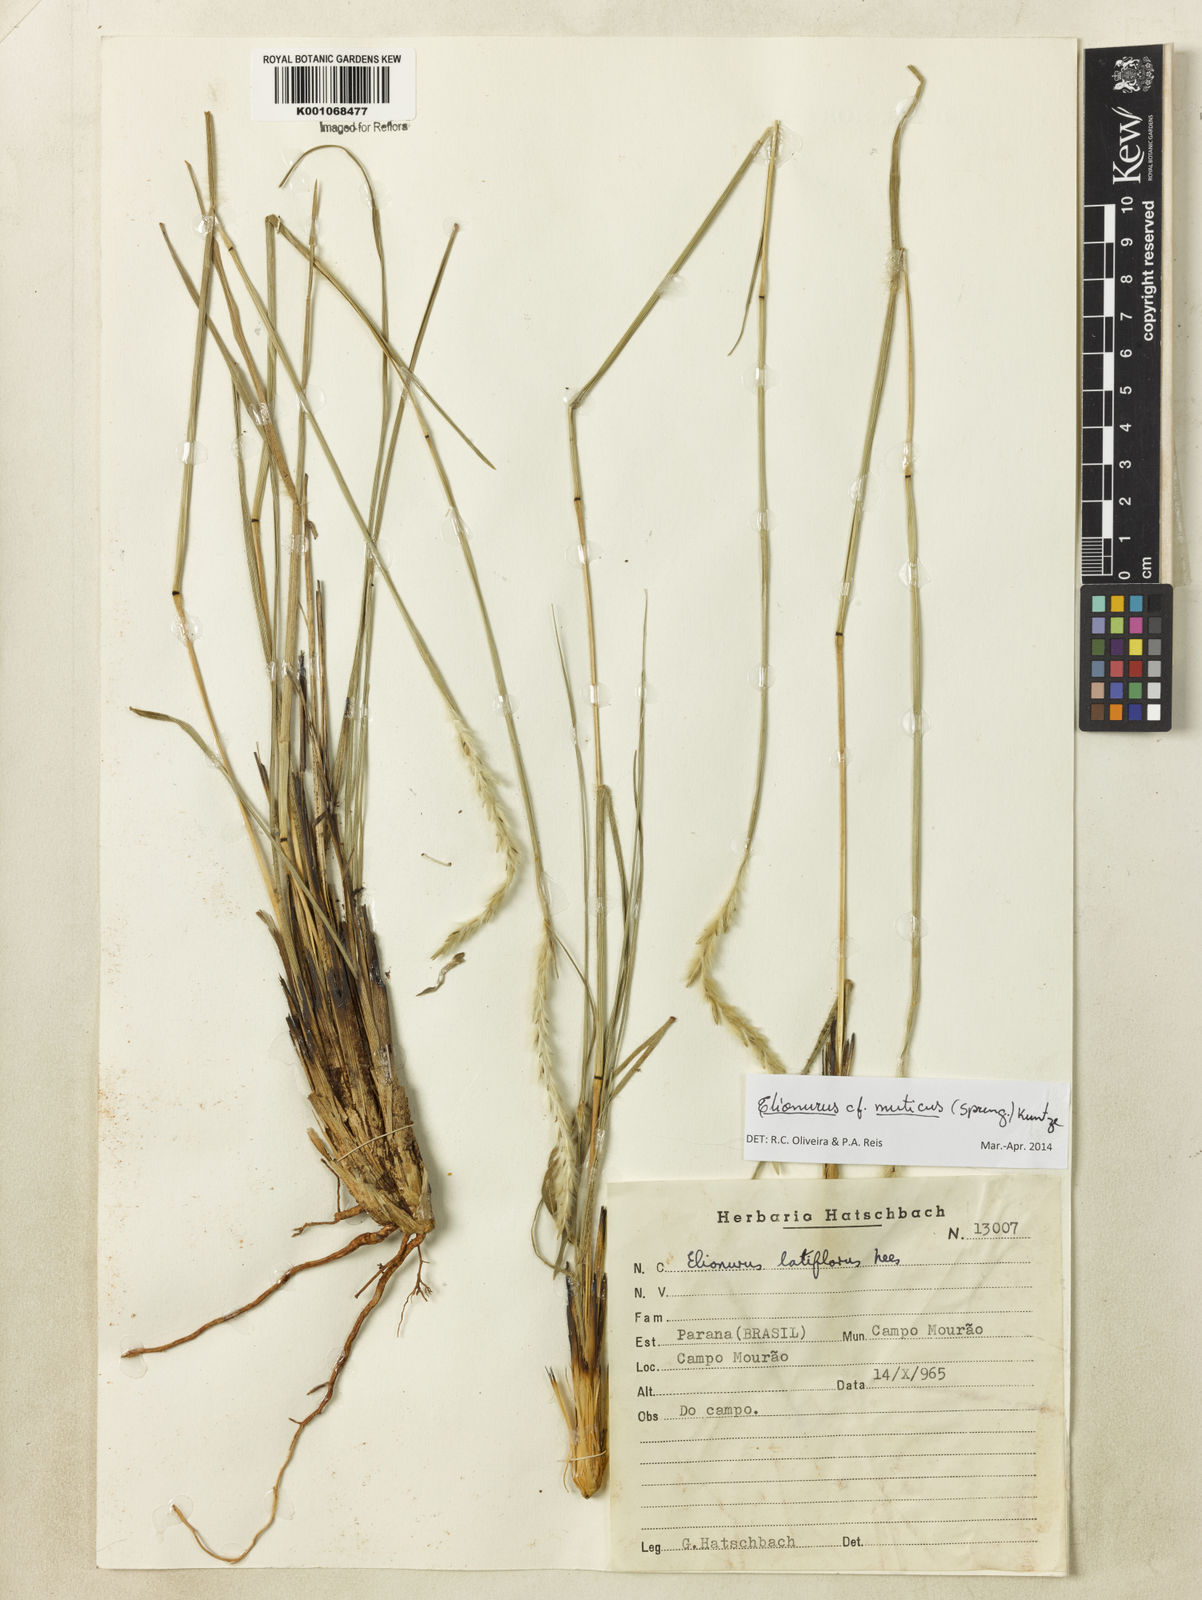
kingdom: Plantae
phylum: Tracheophyta
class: Liliopsida
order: Poales
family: Poaceae
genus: Elionurus
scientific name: Elionurus muticus
